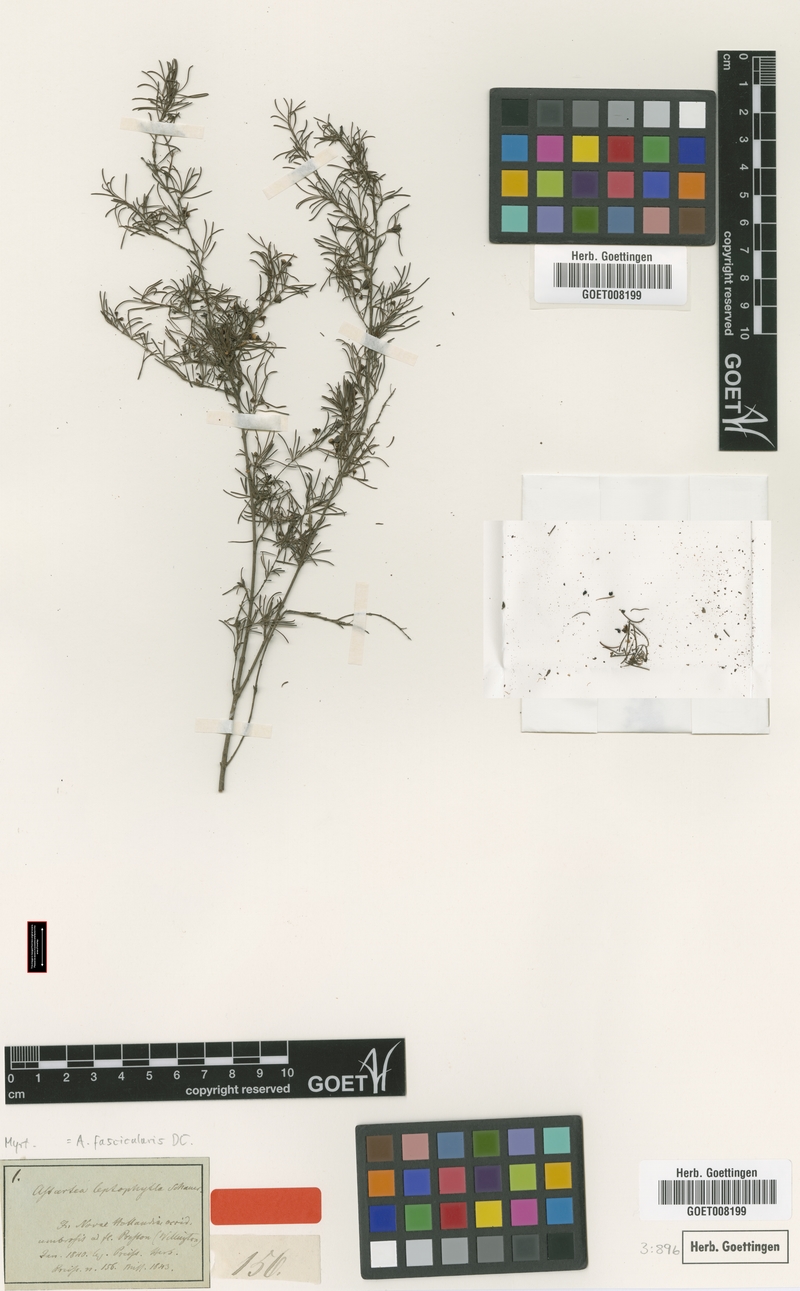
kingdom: Plantae
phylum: Tracheophyta
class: Magnoliopsida
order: Myrtales
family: Myrtaceae
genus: Astartea
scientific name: Astartea fascicularis
